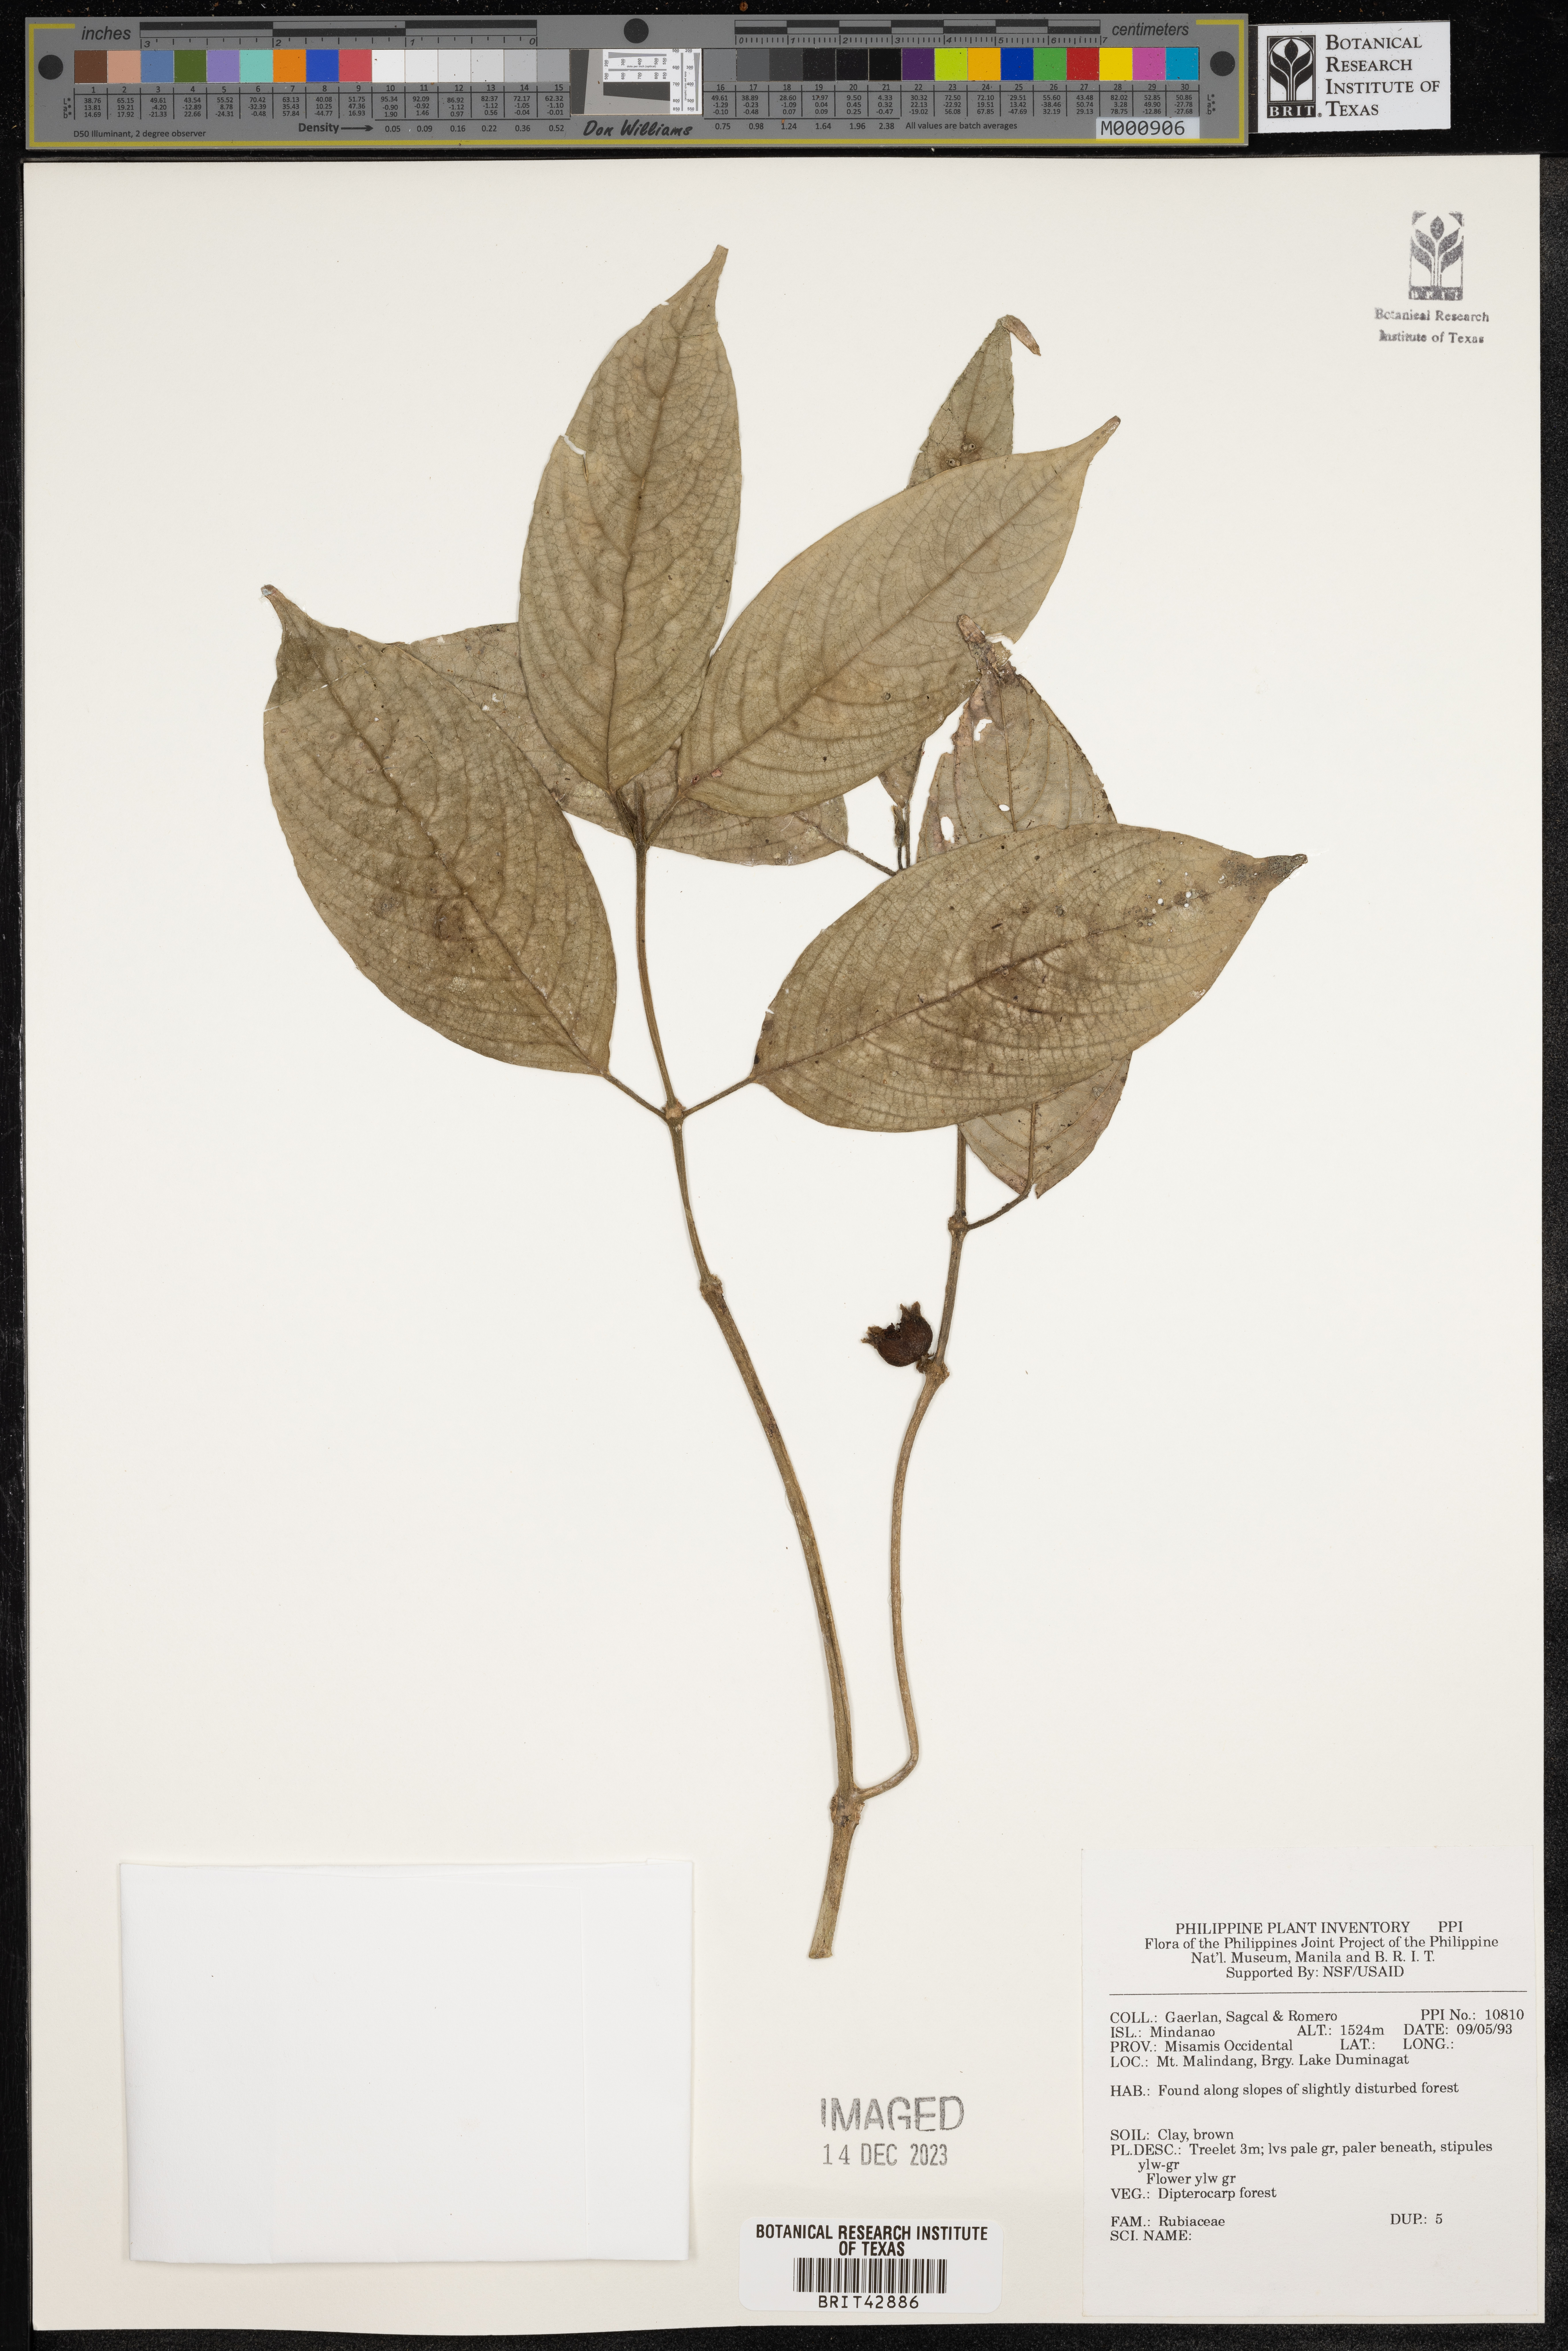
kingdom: Plantae
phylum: Tracheophyta
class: Magnoliopsida
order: Gentianales
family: Rubiaceae
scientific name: Rubiaceae
